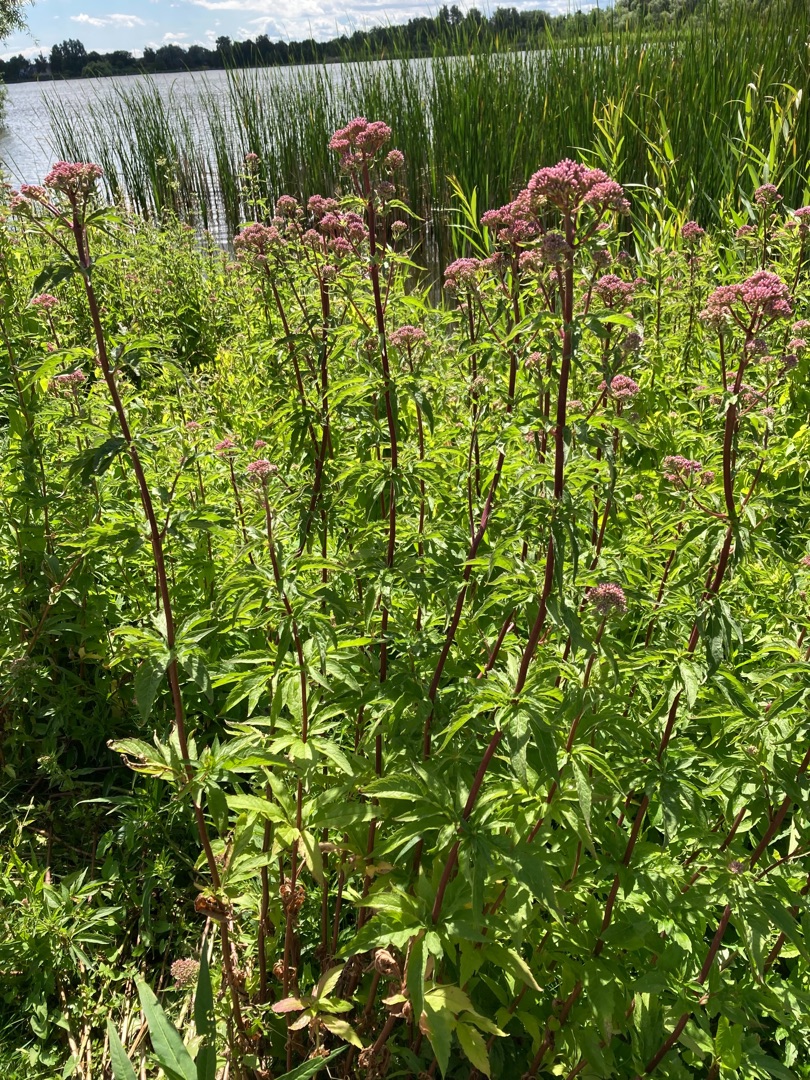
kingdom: Plantae
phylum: Tracheophyta
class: Magnoliopsida
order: Asterales
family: Asteraceae
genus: Eupatorium
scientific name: Eupatorium cannabinum
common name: Hjortetrøst
